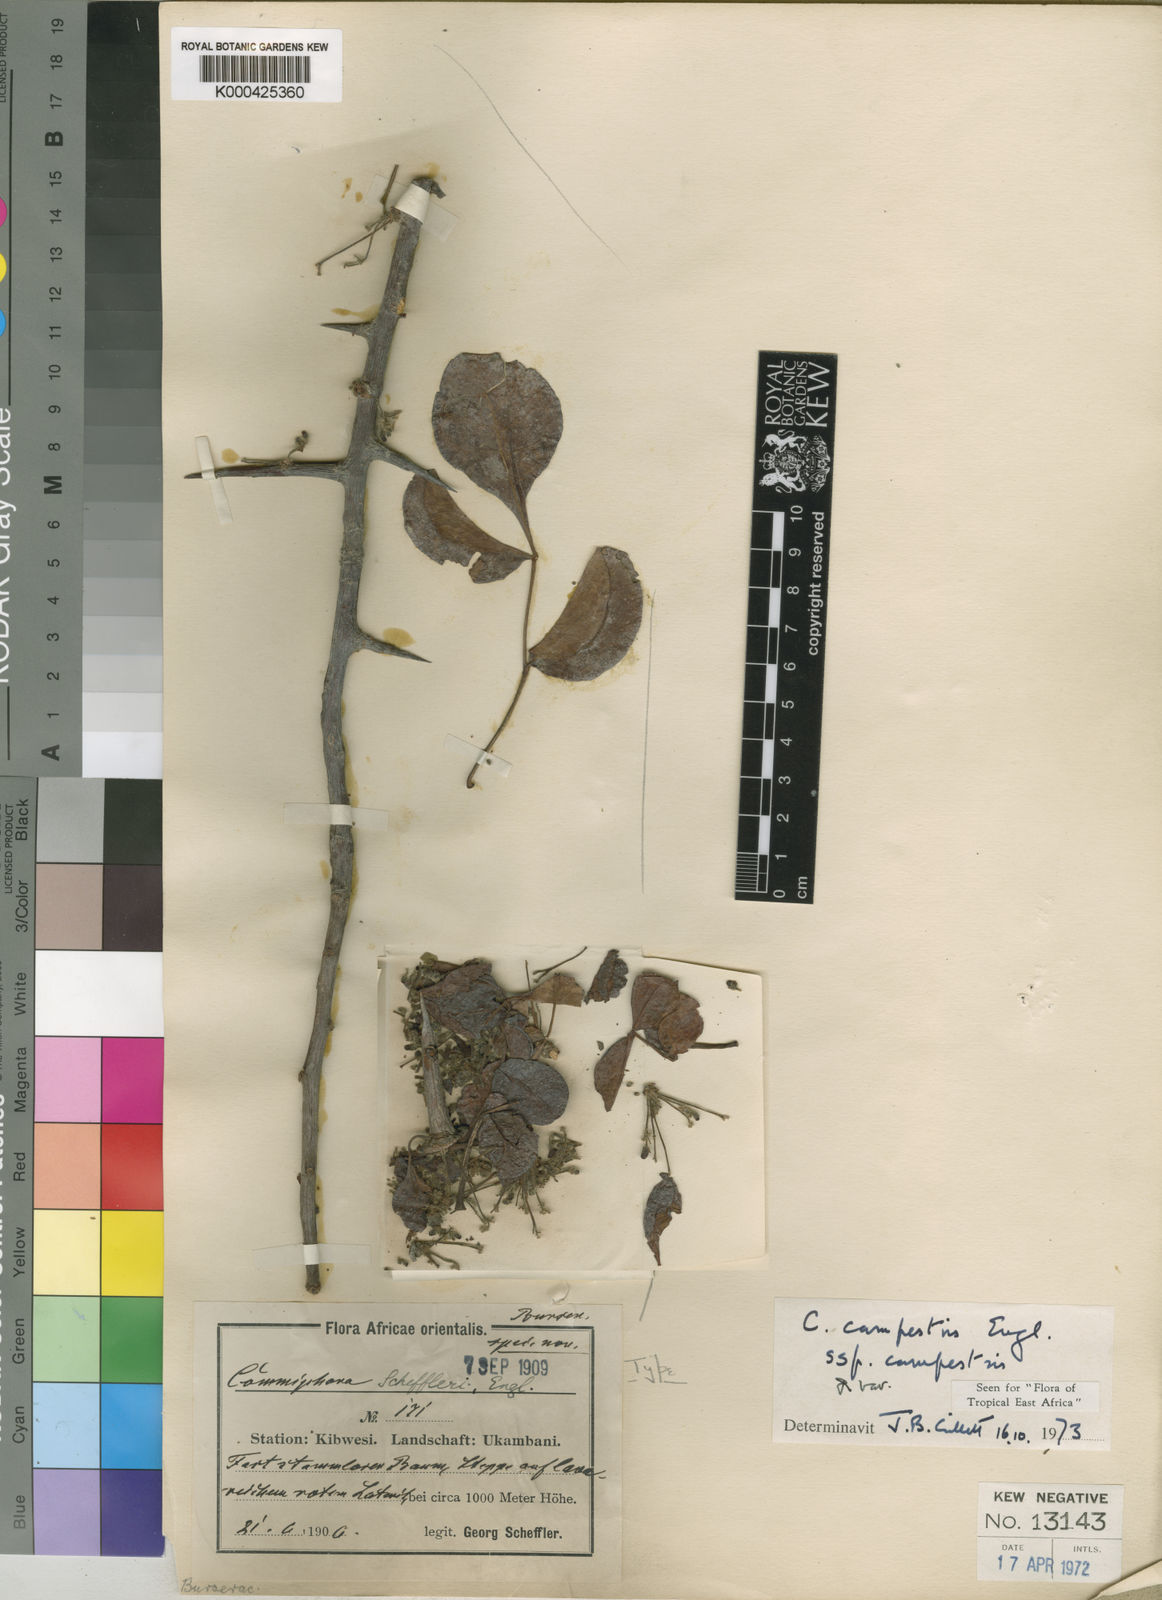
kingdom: Plantae
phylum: Tracheophyta
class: Magnoliopsida
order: Sapindales
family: Burseraceae
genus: Commiphora
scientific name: Commiphora campestris
